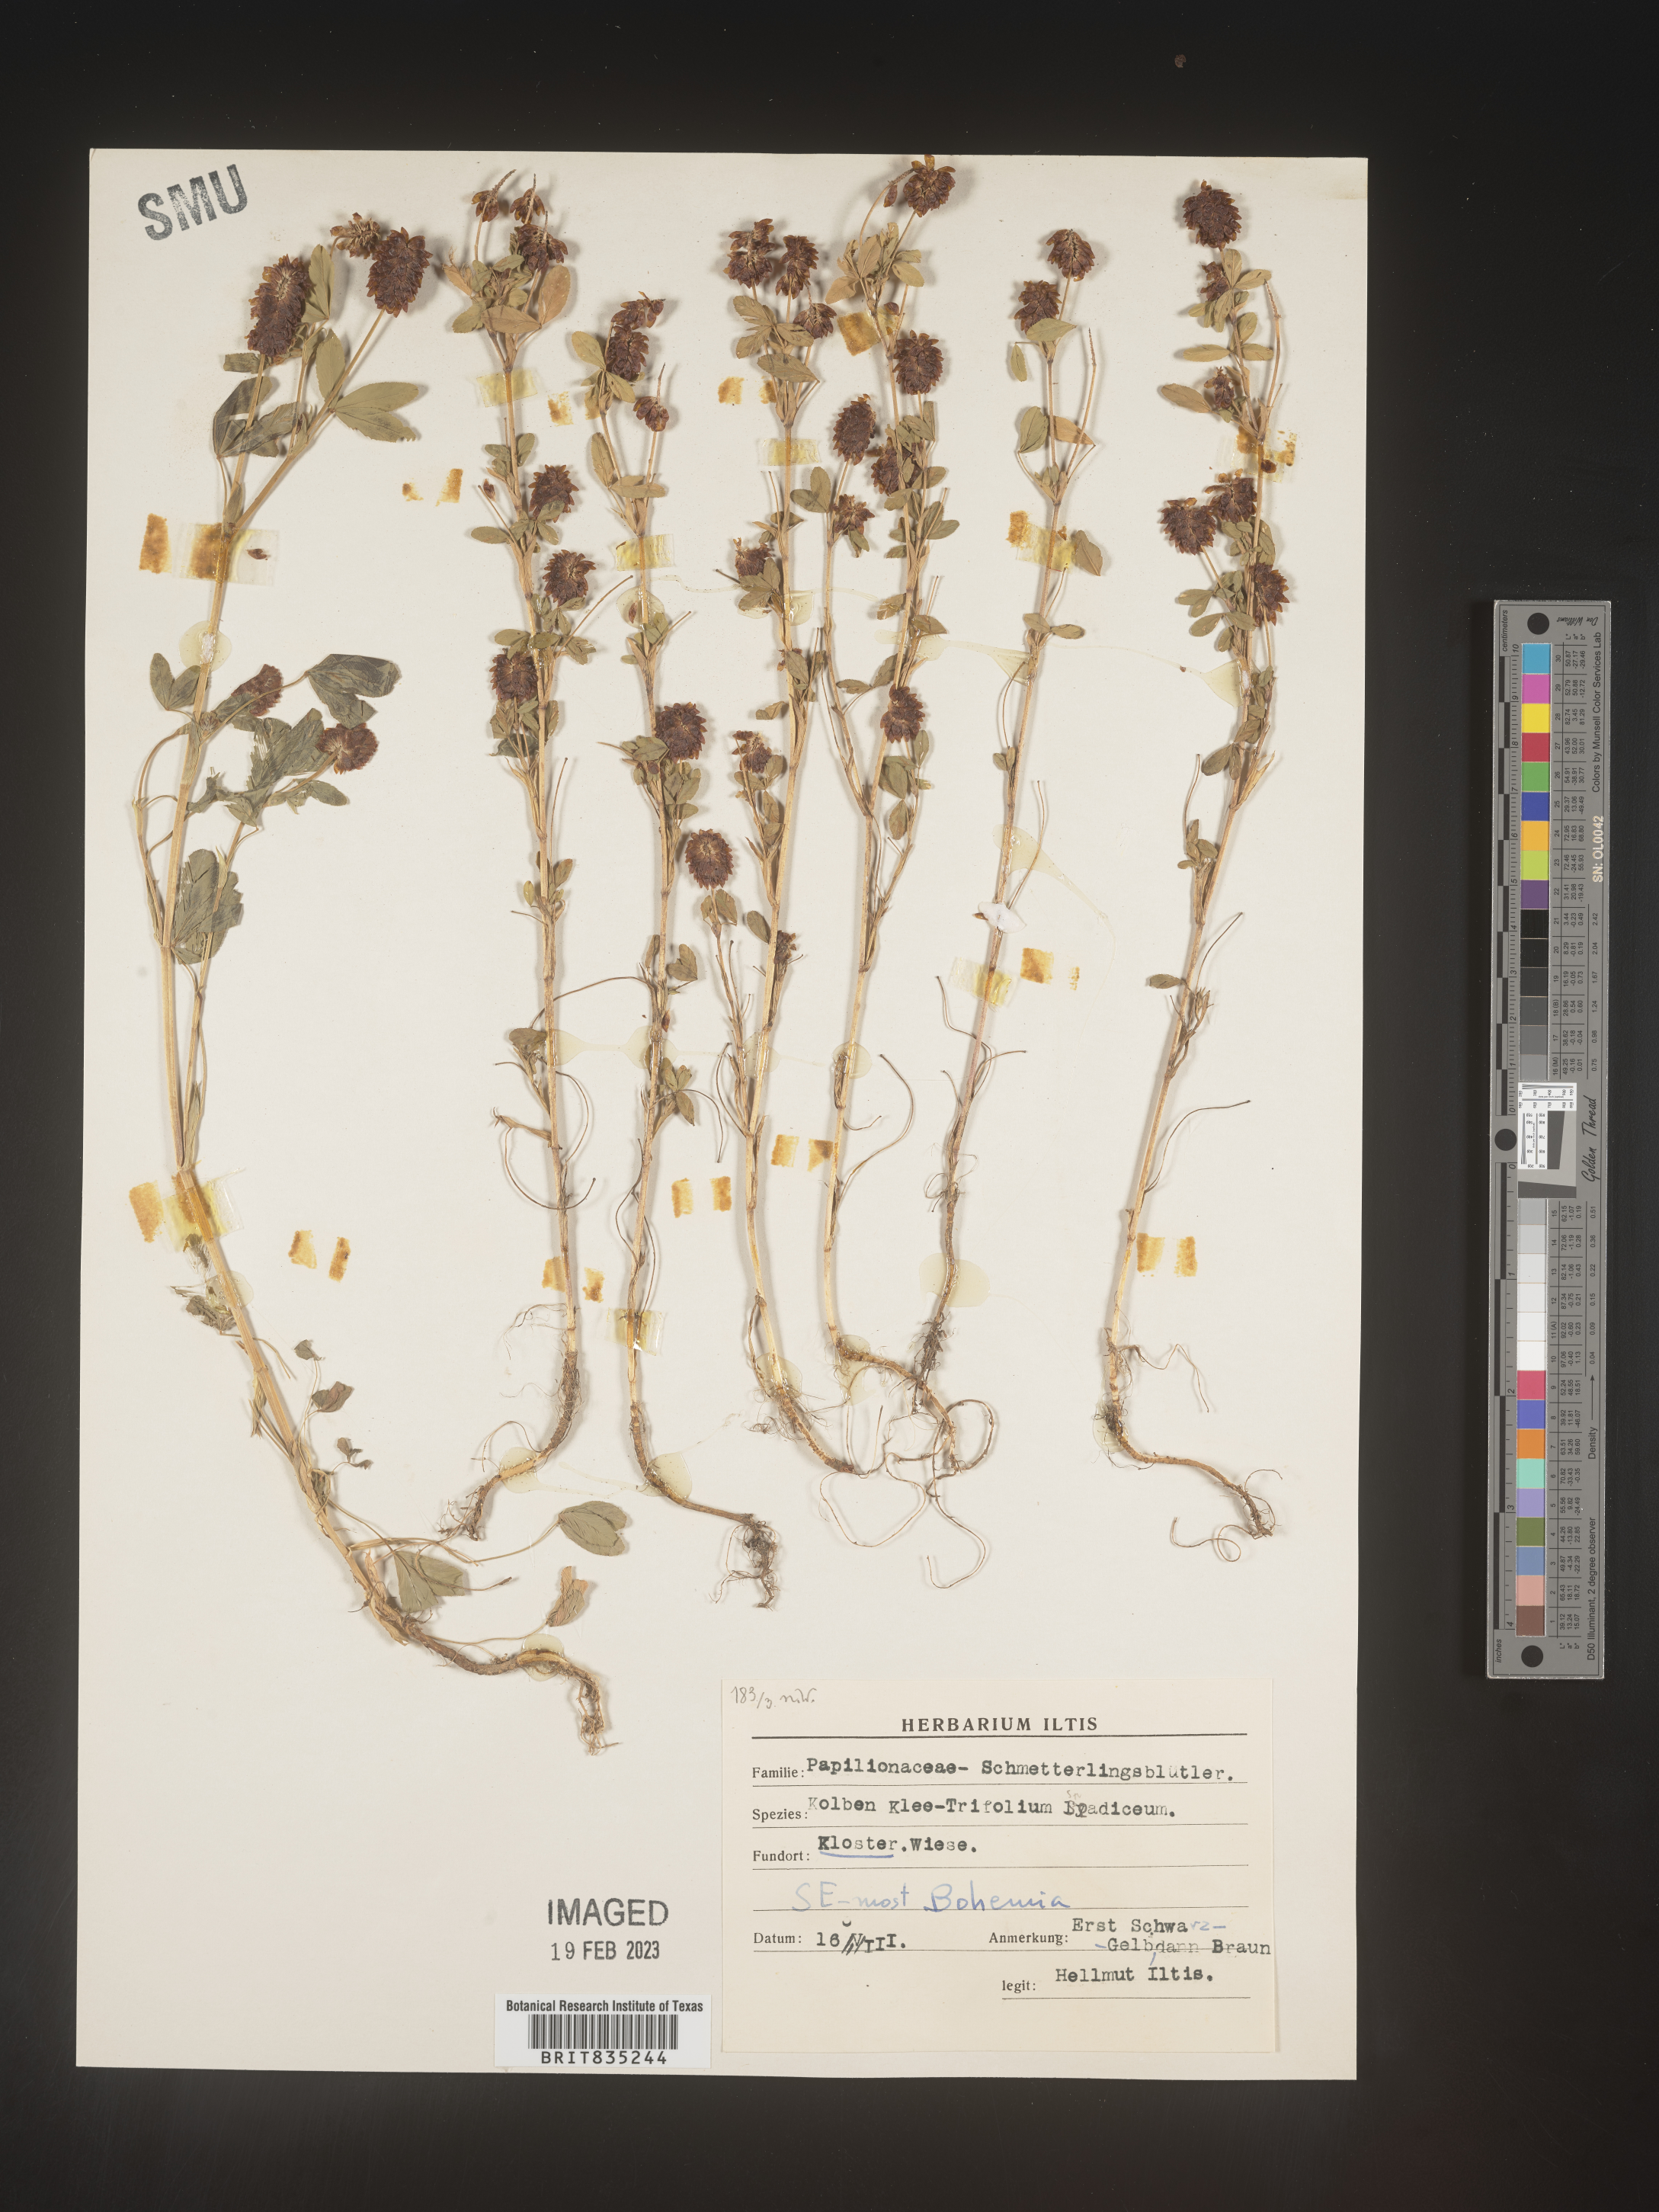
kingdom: Plantae
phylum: Tracheophyta
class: Magnoliopsida
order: Fabales
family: Fabaceae
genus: Trifolium
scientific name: Trifolium
